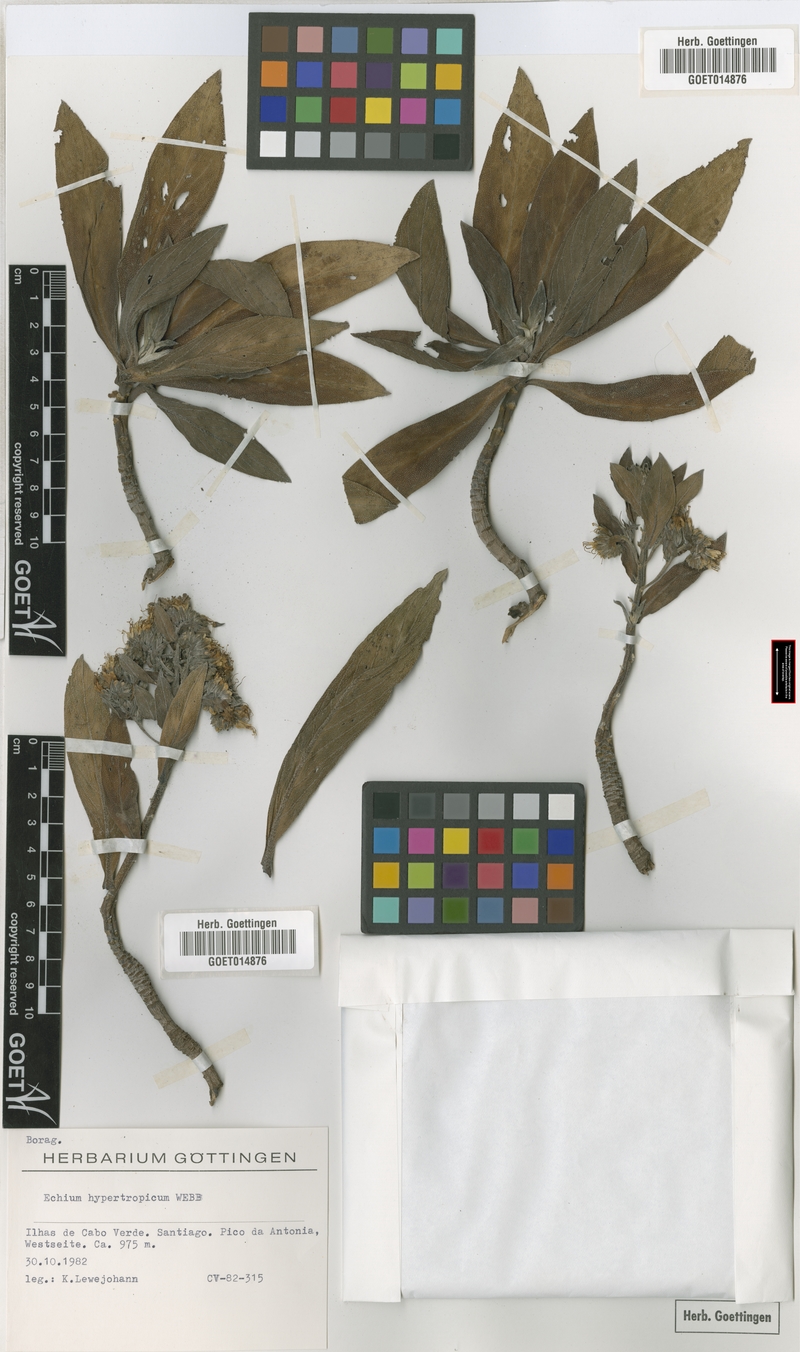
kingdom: Plantae
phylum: Tracheophyta
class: Magnoliopsida
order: Boraginales
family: Boraginaceae
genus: Echium
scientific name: Echium hypertrophicum
